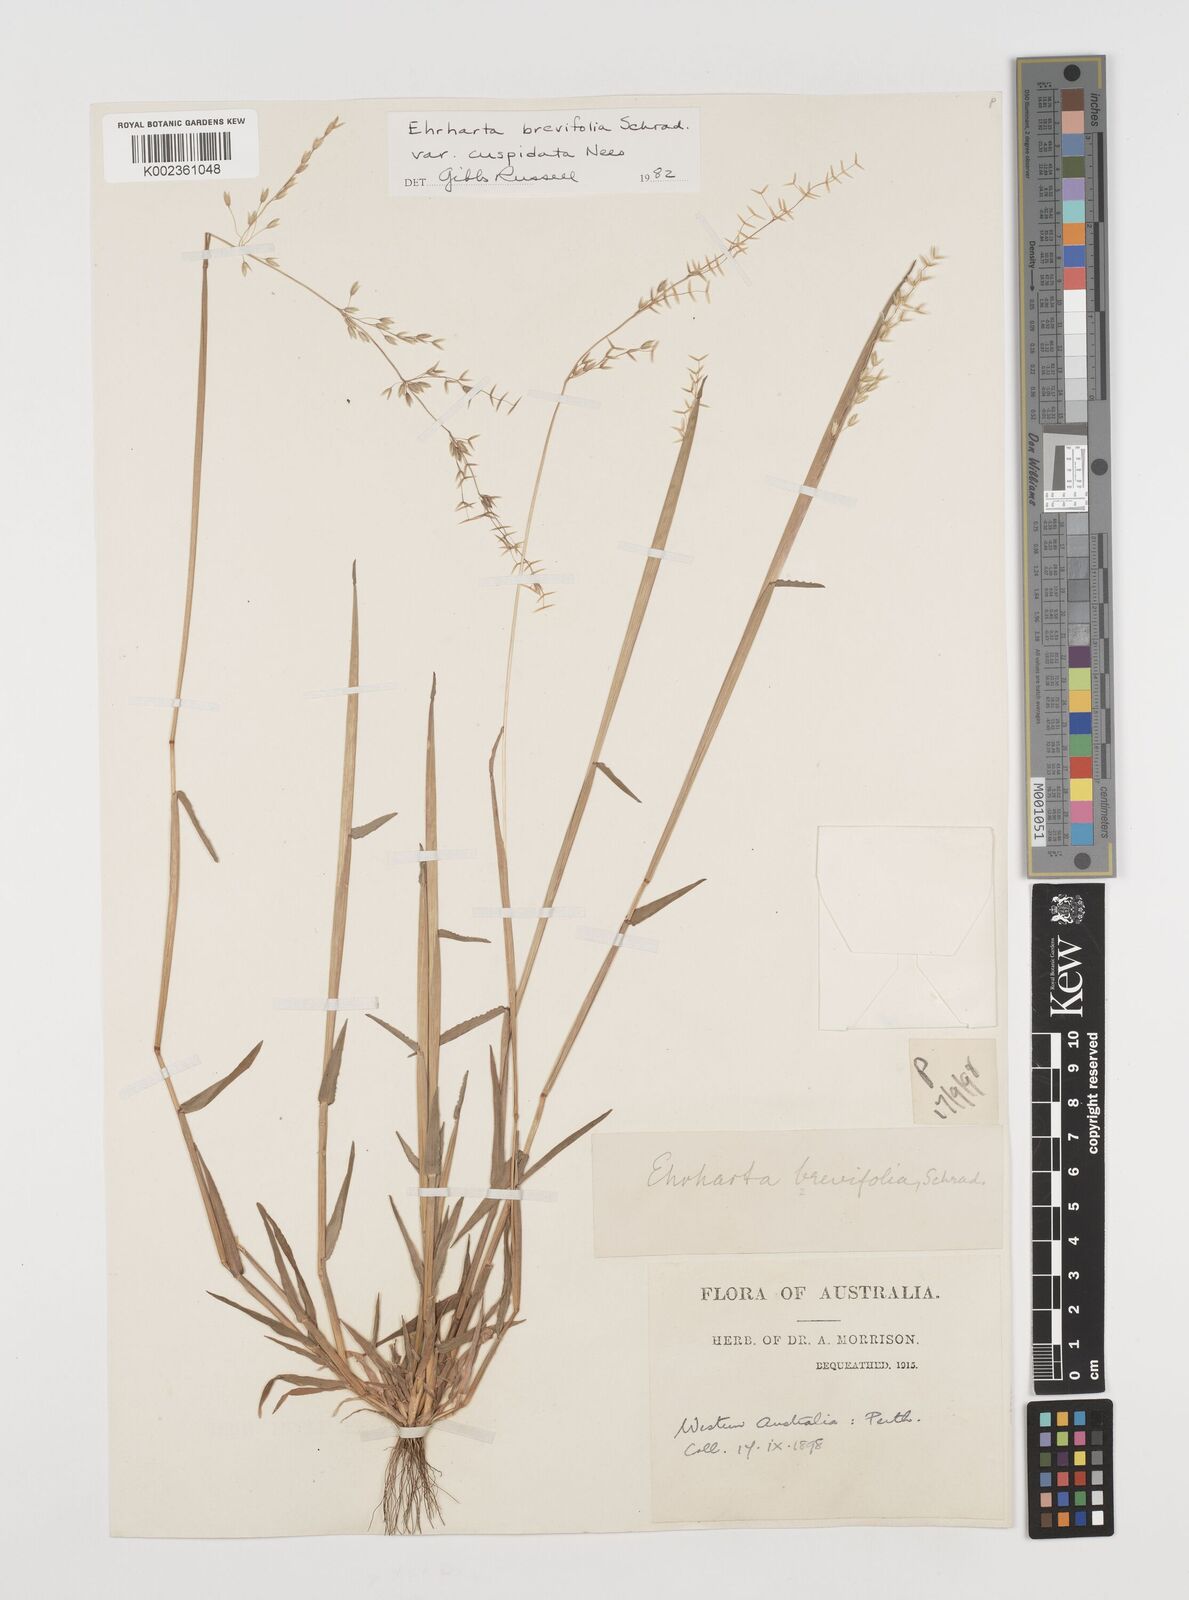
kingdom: Plantae
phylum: Tracheophyta
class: Liliopsida
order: Poales
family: Poaceae
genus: Ehrharta
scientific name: Ehrharta brevifolia
